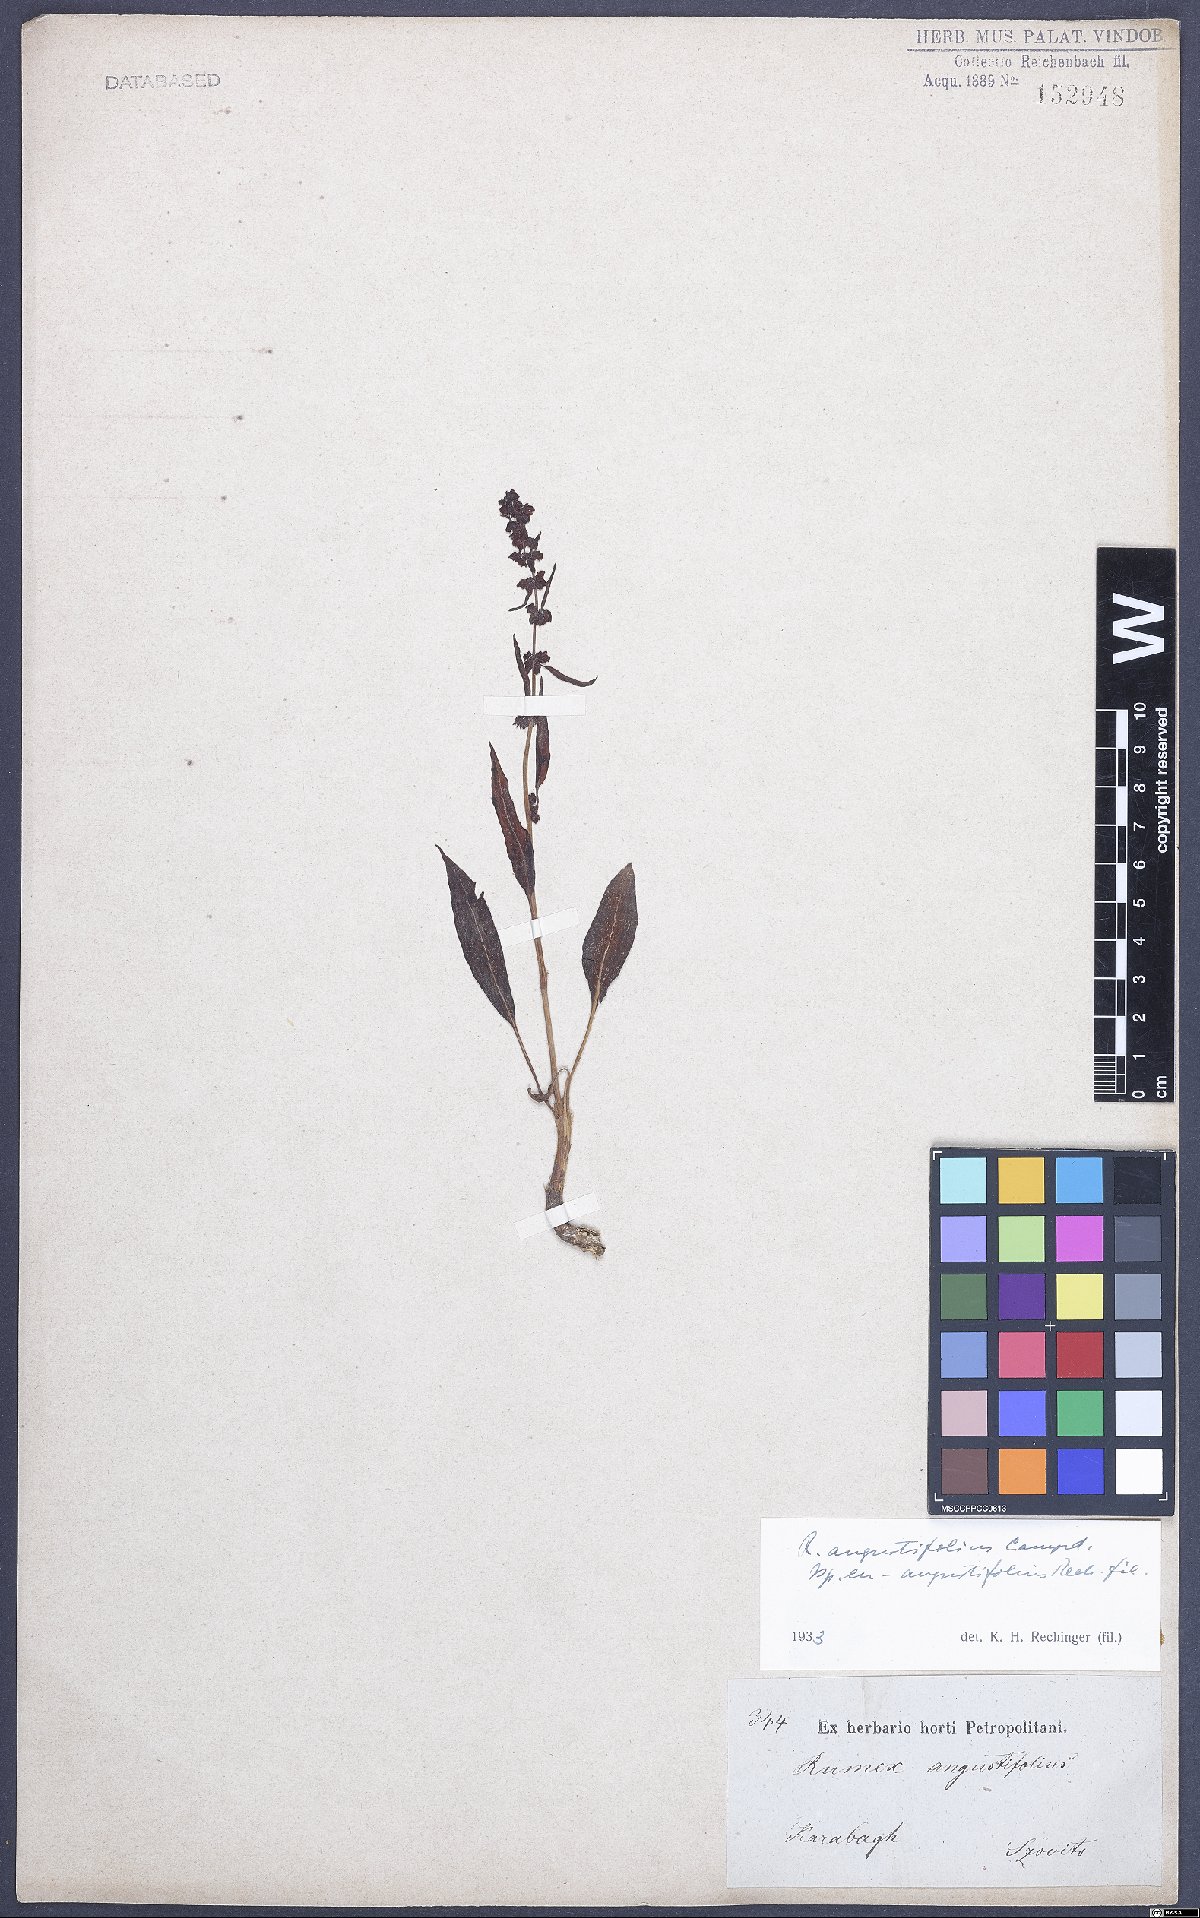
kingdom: Plantae
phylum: Tracheophyta
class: Magnoliopsida
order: Caryophyllales
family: Polygonaceae
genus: Rumex
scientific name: Rumex angustifolius
